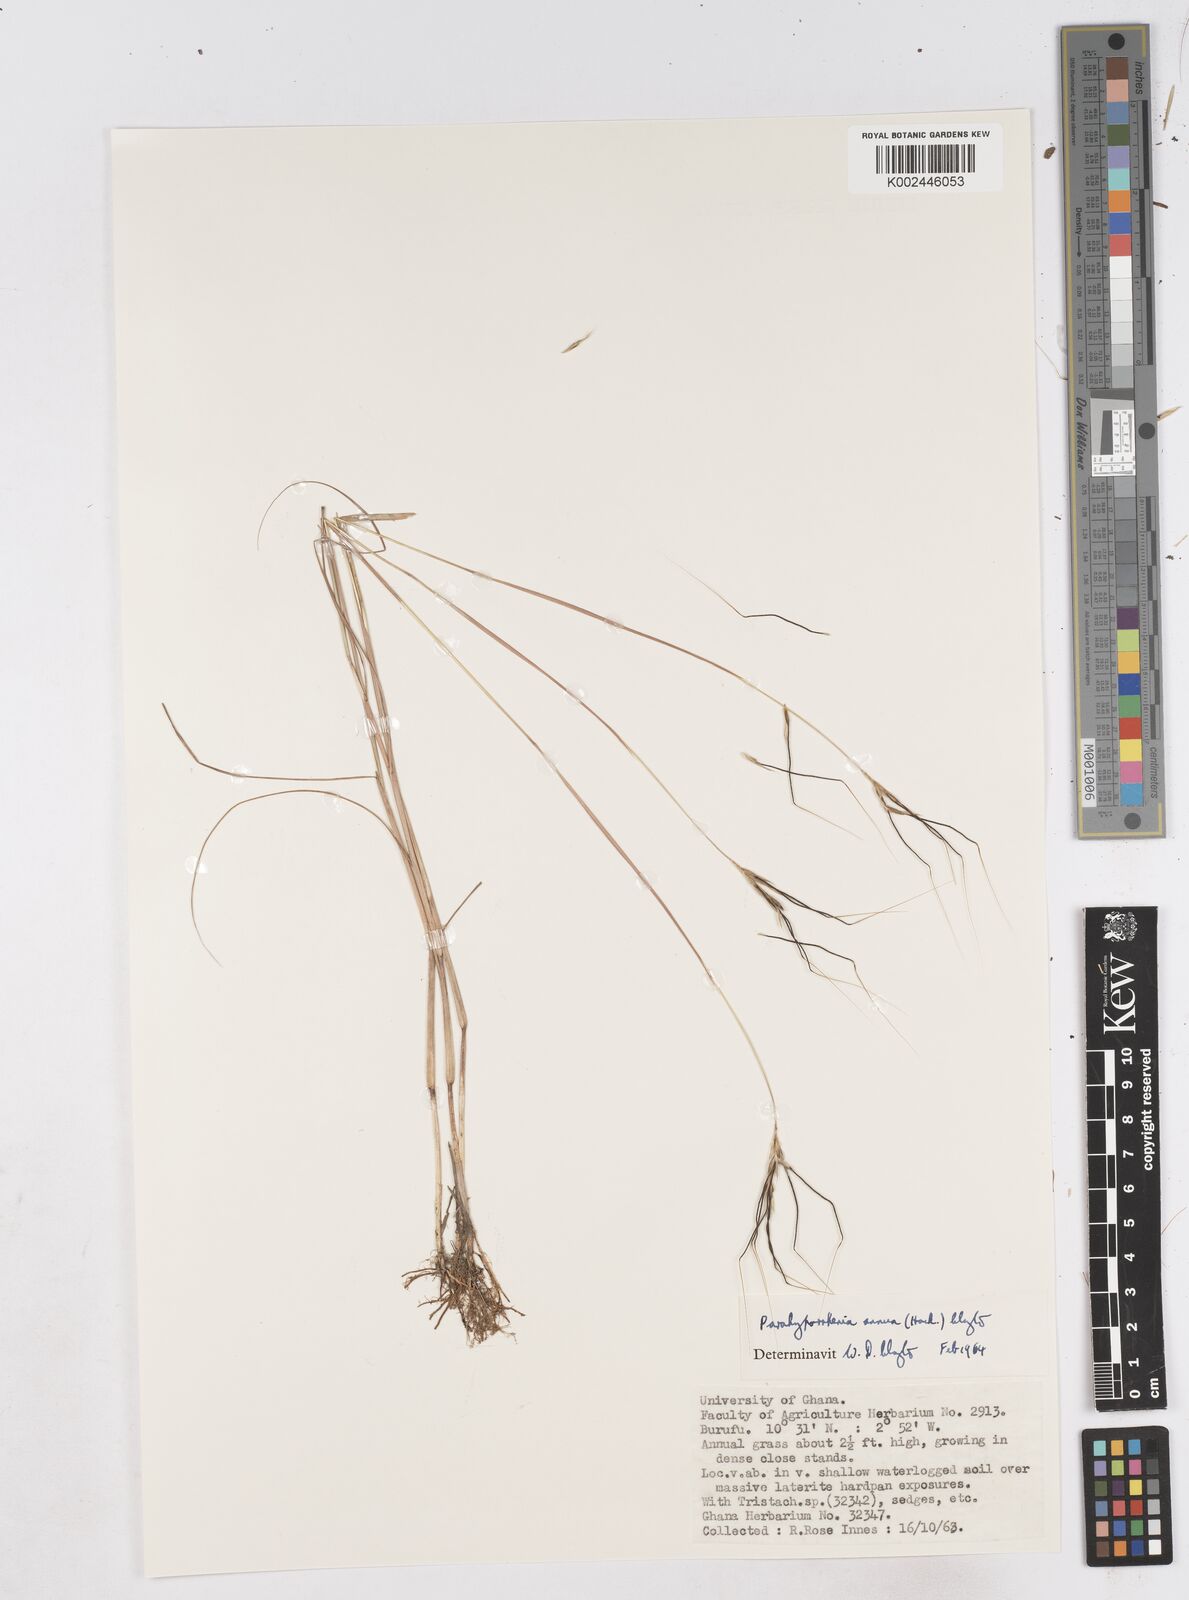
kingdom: Plantae
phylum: Tracheophyta
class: Liliopsida
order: Poales
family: Poaceae
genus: Parahyparrhenia
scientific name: Parahyparrhenia annua
